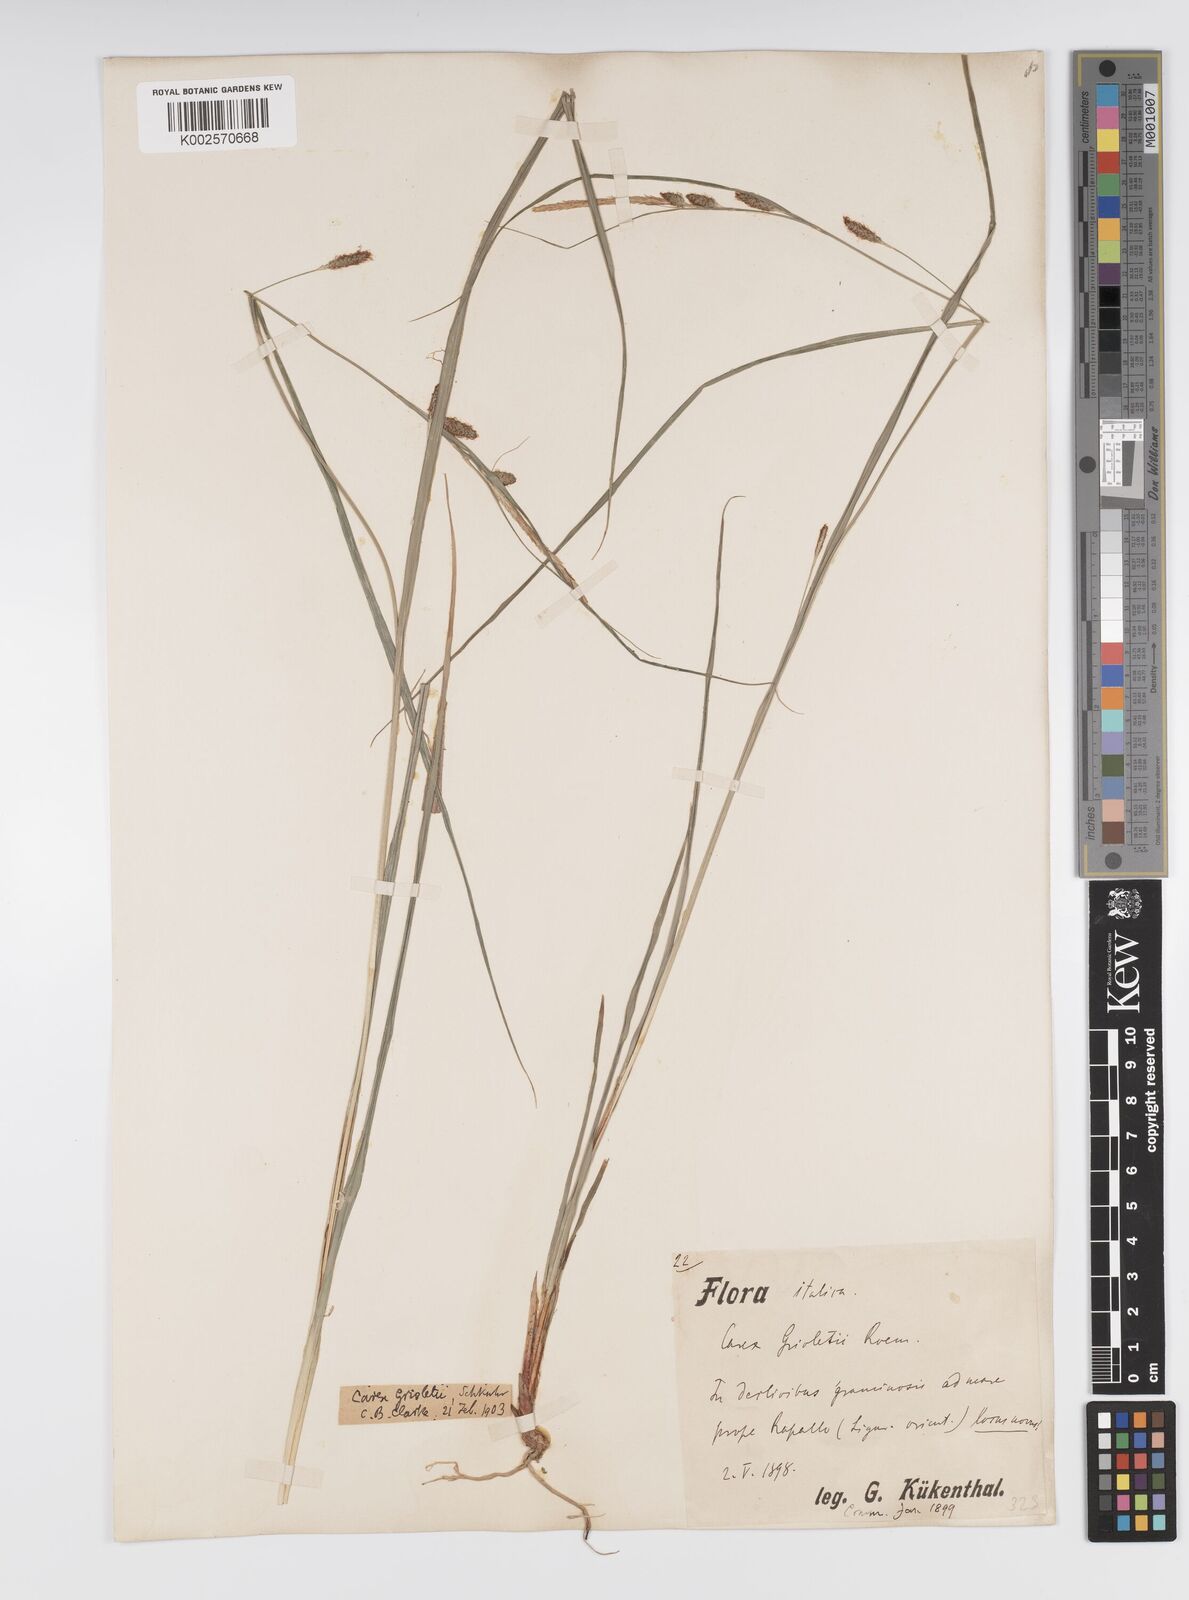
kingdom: Plantae
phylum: Tracheophyta
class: Liliopsida
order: Poales
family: Cyperaceae
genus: Carex
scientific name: Carex grioletii
